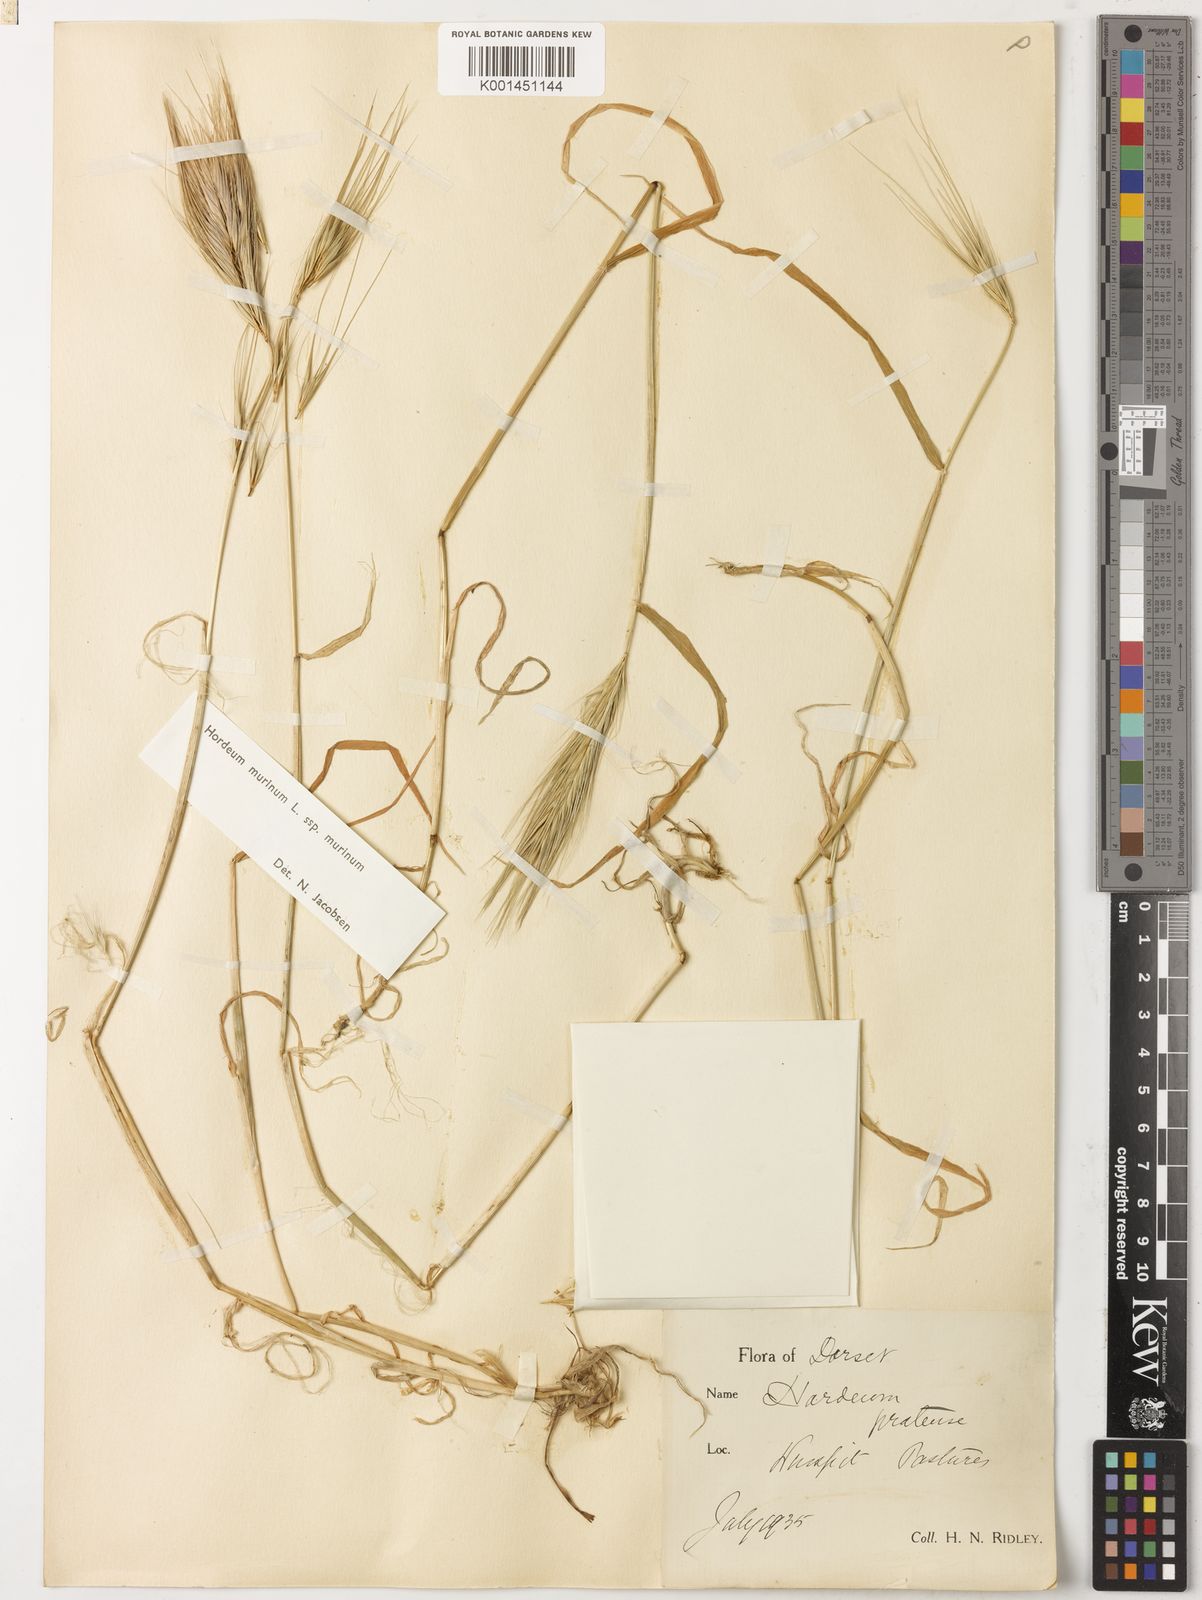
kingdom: Plantae
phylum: Tracheophyta
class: Liliopsida
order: Poales
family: Poaceae
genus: Hordeum
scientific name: Hordeum murinum
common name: Wall barley
